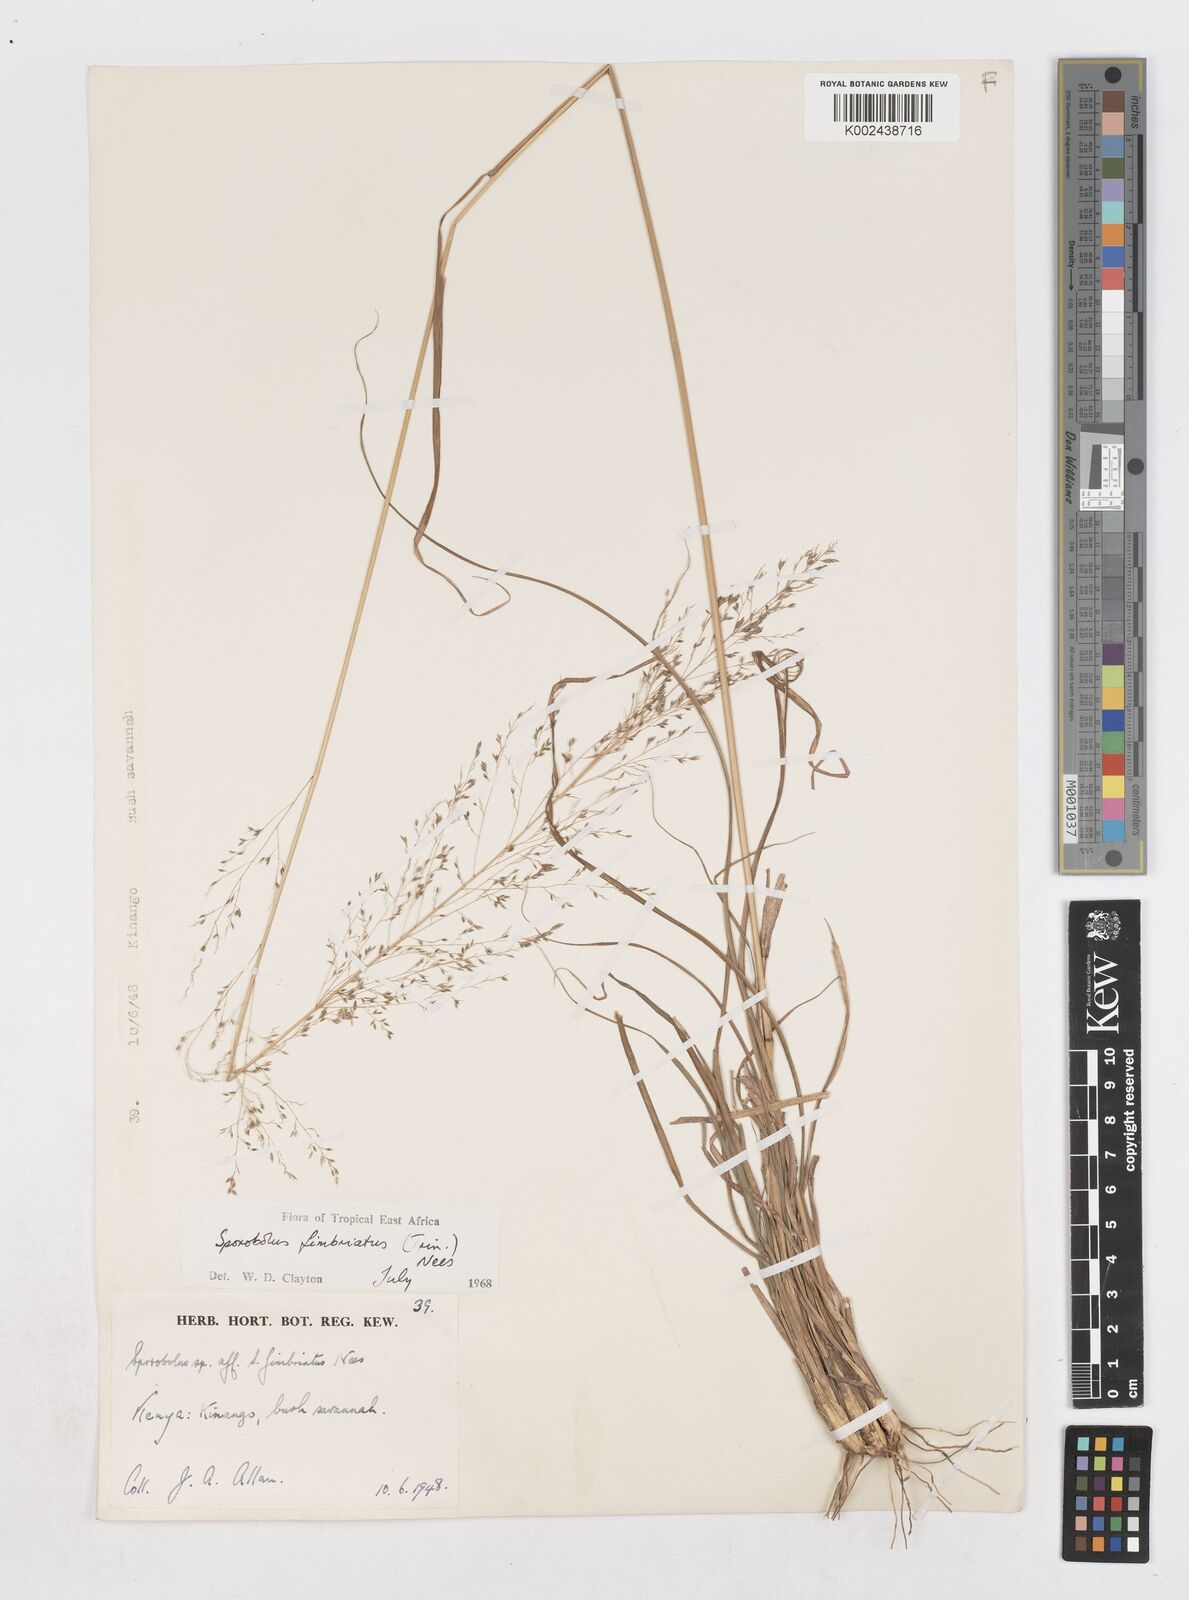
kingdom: Plantae
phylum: Tracheophyta
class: Liliopsida
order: Poales
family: Poaceae
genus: Sporobolus
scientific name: Sporobolus fimbriatus
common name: Fringed dropseed
